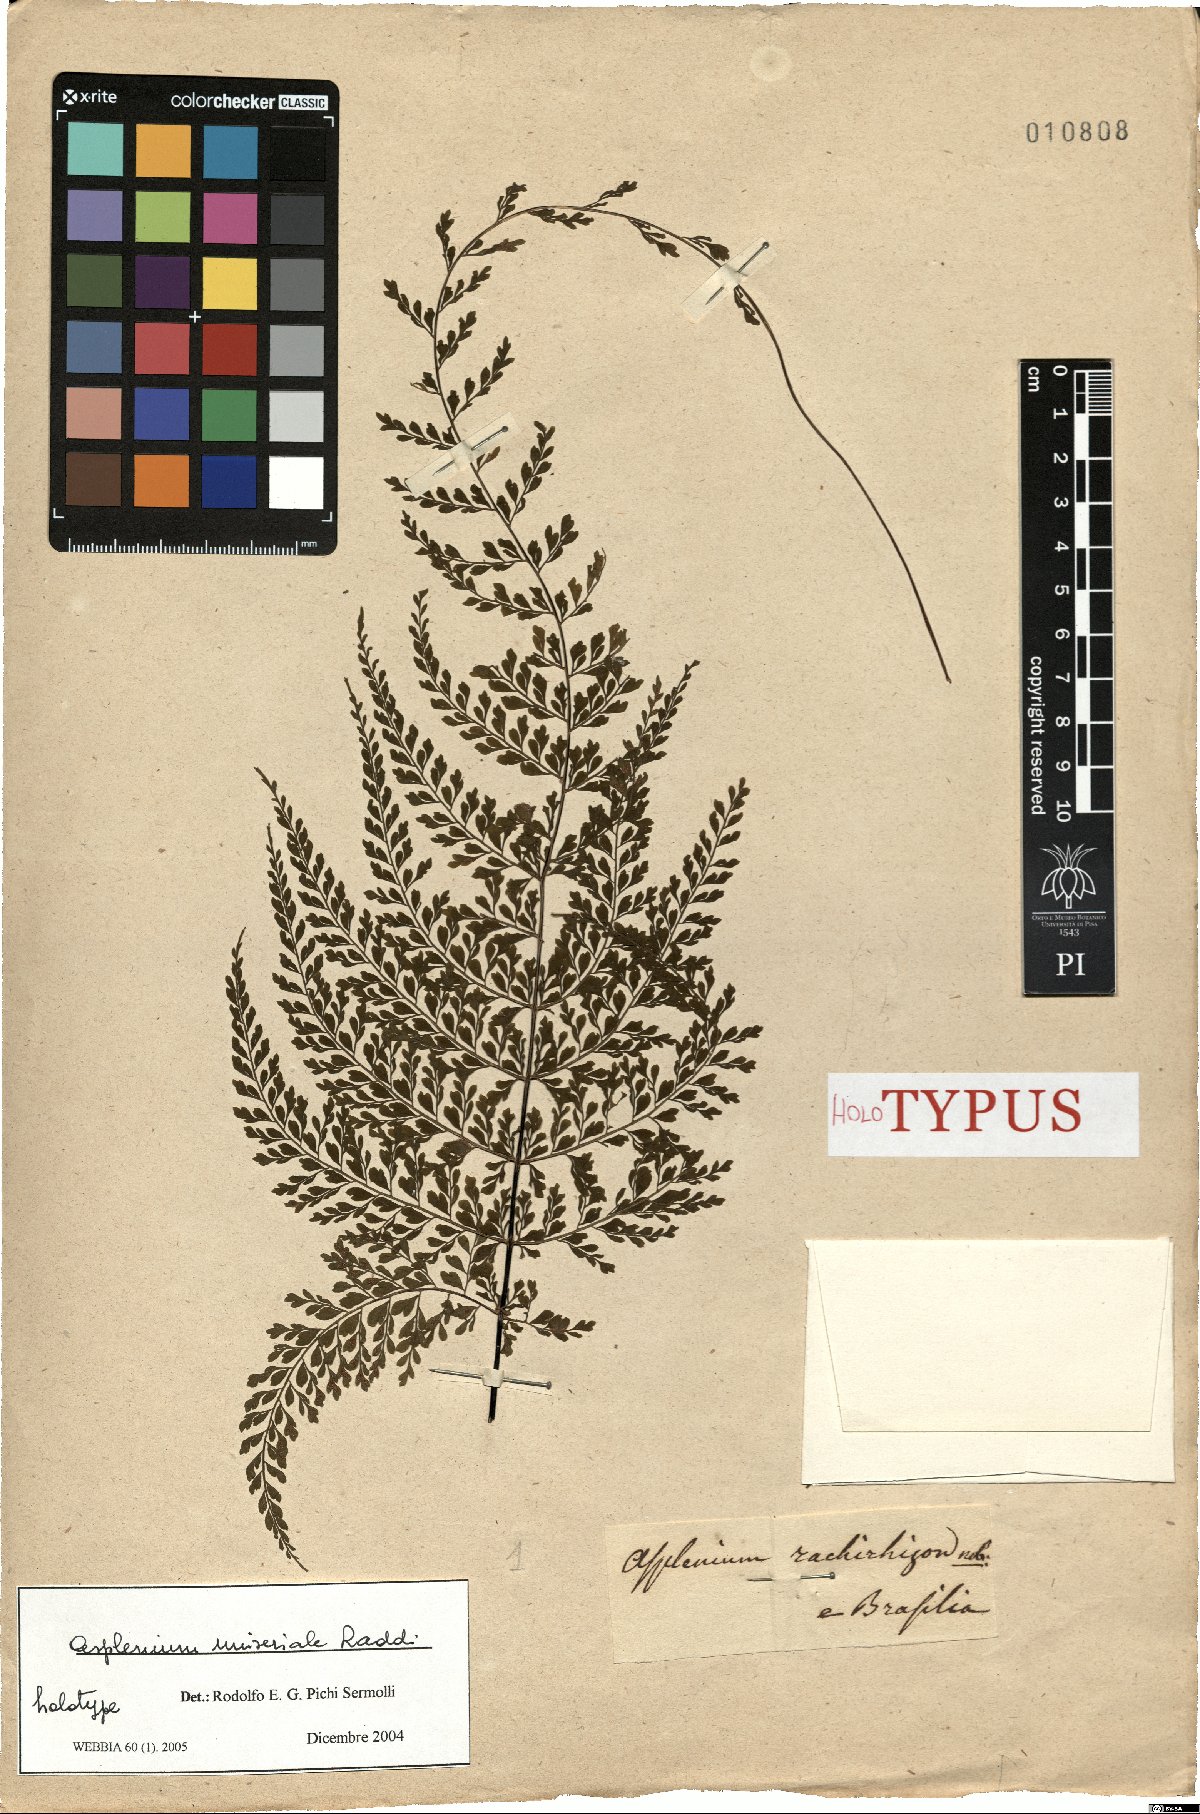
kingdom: Plantae
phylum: Tracheophyta
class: Polypodiopsida
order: Polypodiales
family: Aspleniaceae
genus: Asplenium
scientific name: Asplenium uniseriale
